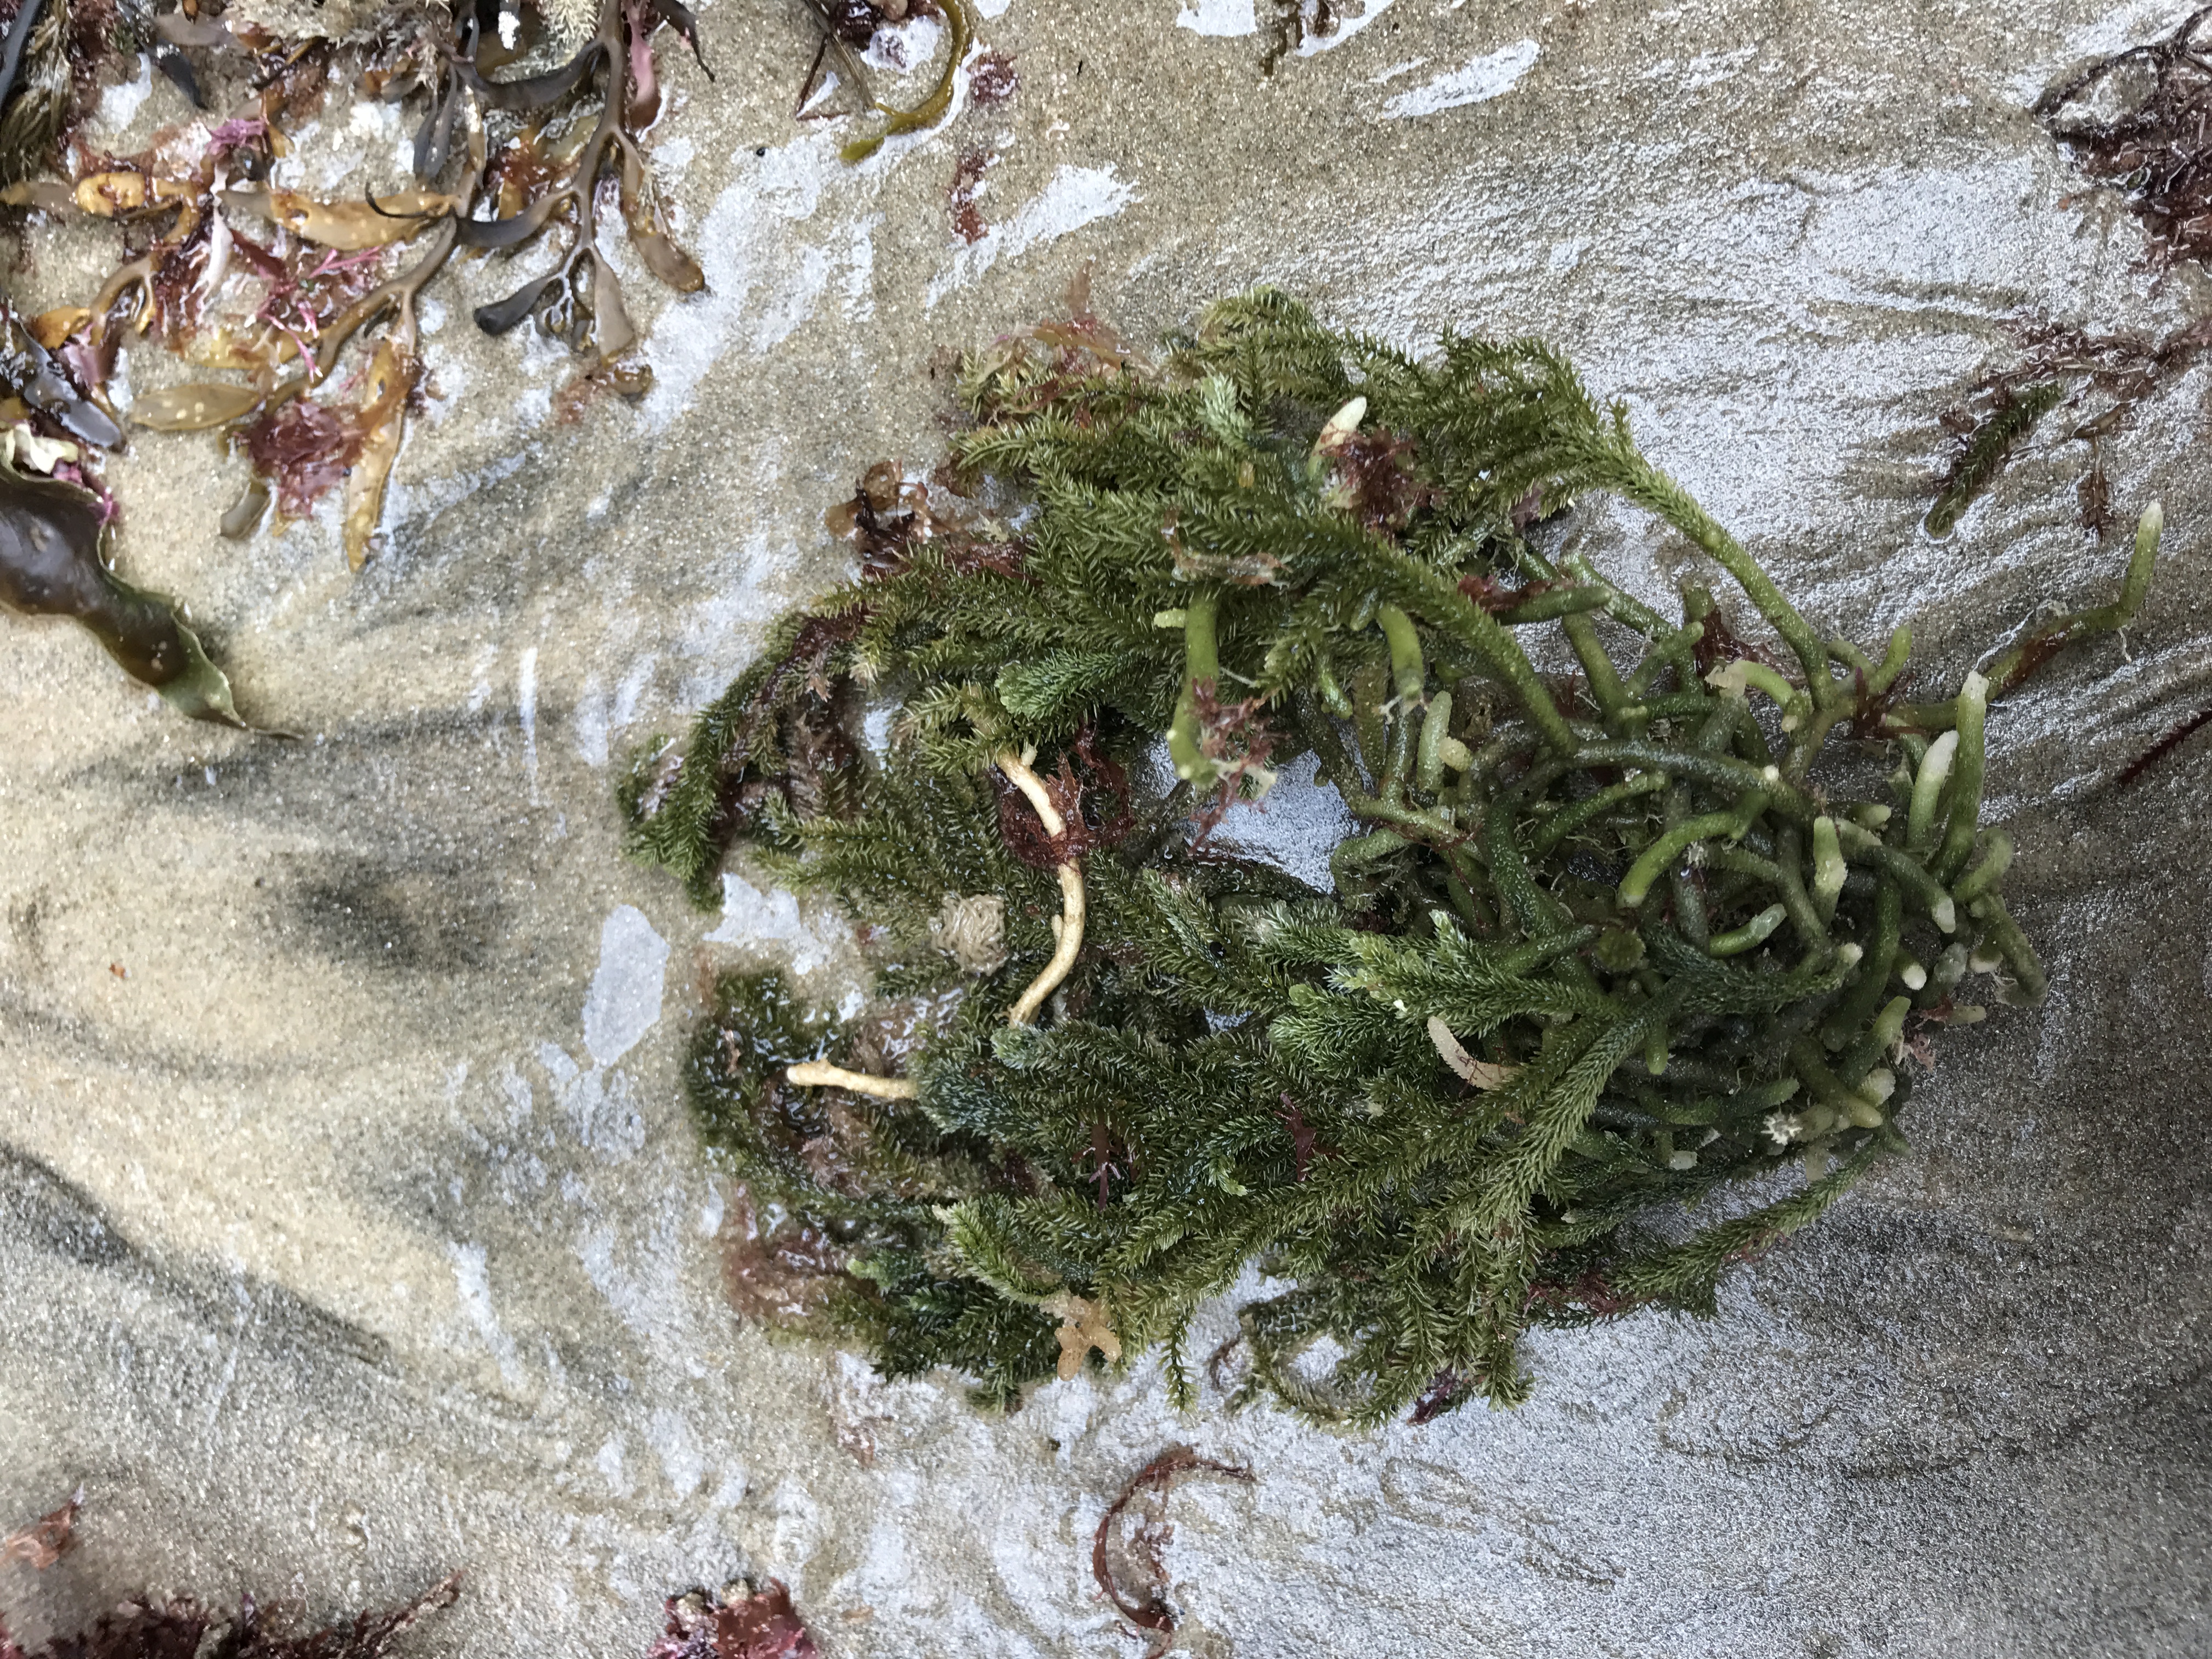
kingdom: Plantae
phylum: Chlorophyta
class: Ulvophyceae
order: Bryopsidales
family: Caulerpaceae
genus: Caulerpa
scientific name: Caulerpa flexilis
